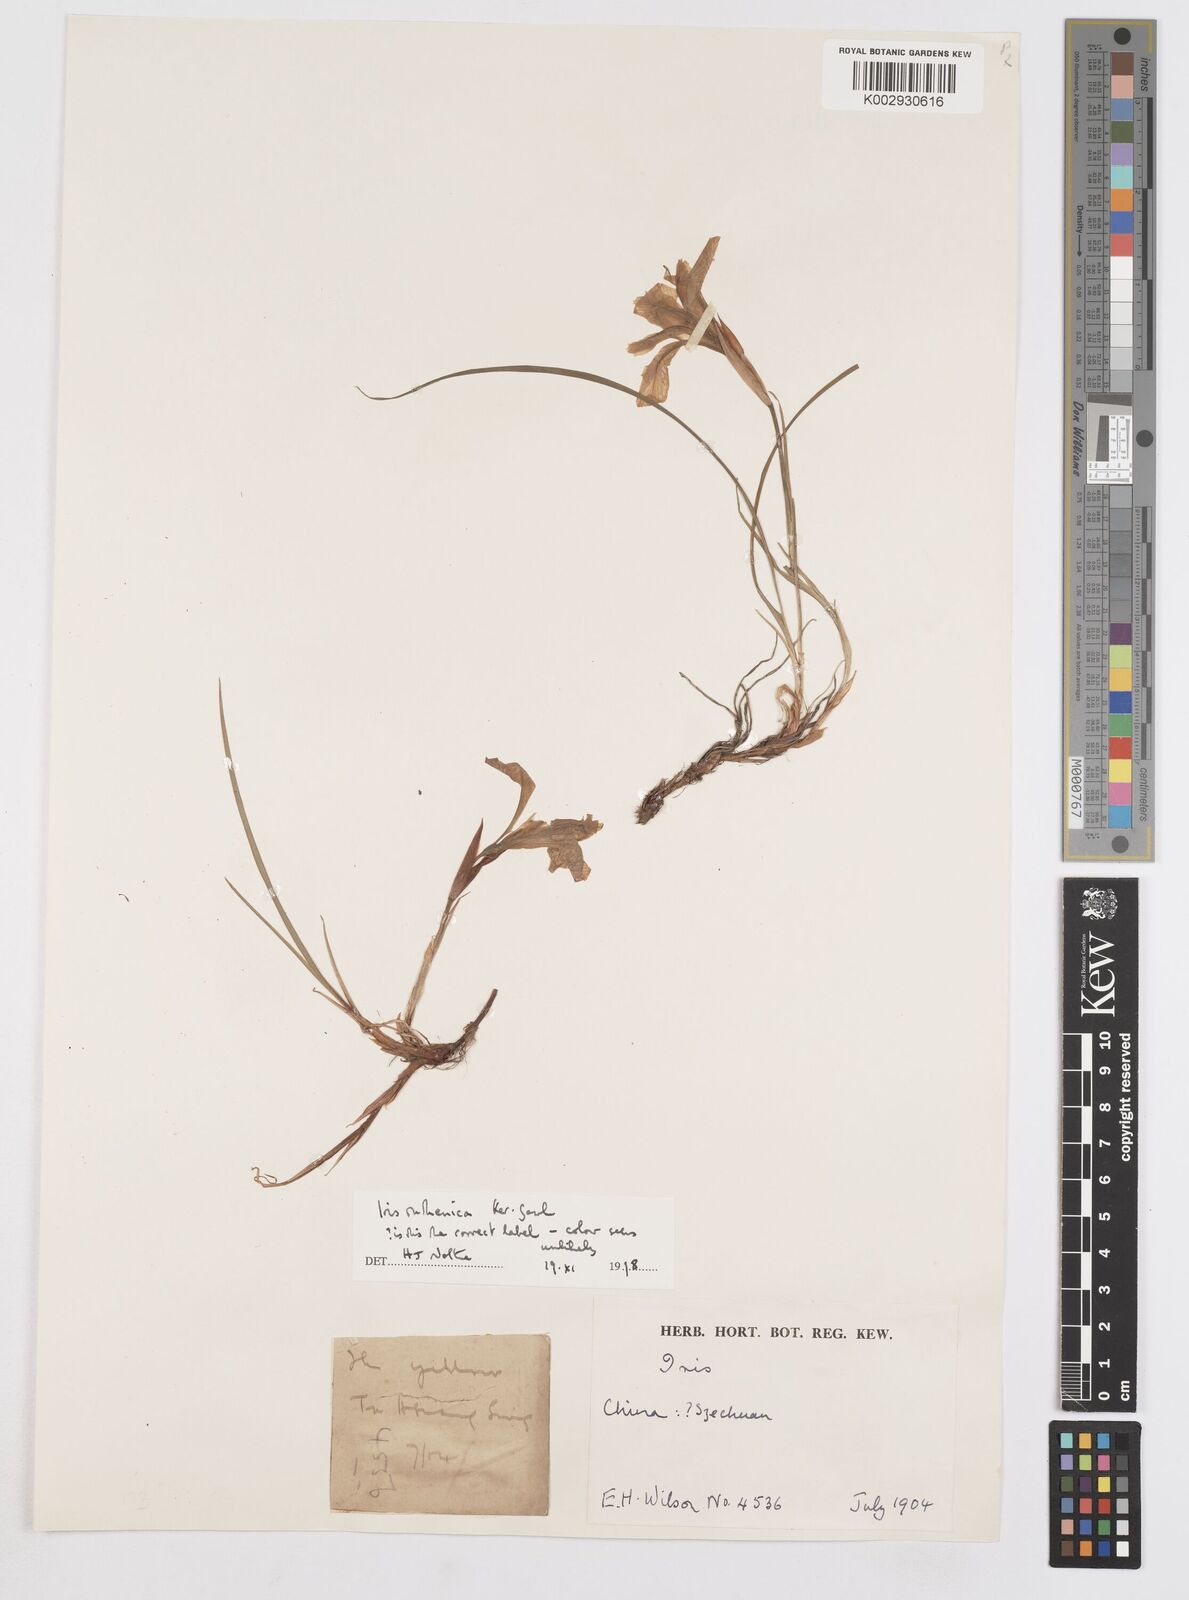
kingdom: Plantae
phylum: Tracheophyta
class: Liliopsida
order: Asparagales
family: Iridaceae
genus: Iris
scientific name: Iris ruthenica
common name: Purple-bract iris
